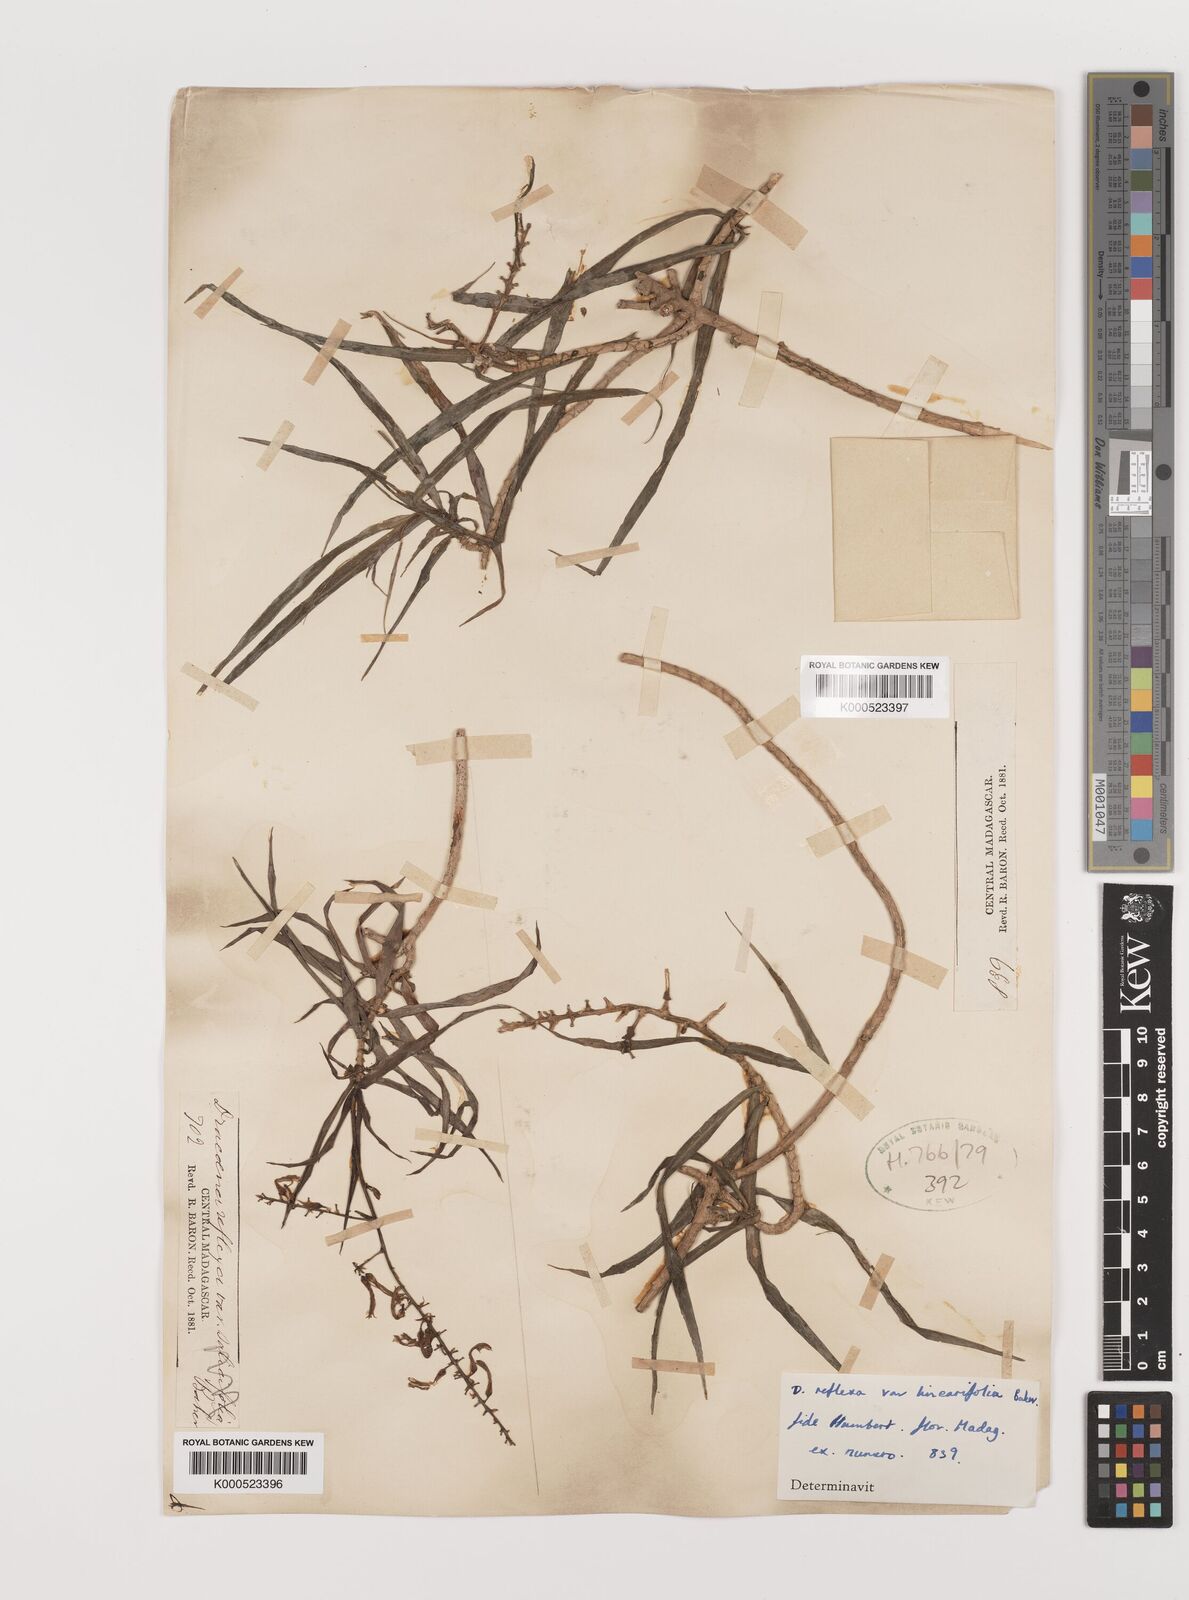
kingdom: Plantae
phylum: Tracheophyta
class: Liliopsida
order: Asparagales
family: Asparagaceae
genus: Dracaena
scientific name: Dracaena reflexa
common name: Song-of-india
